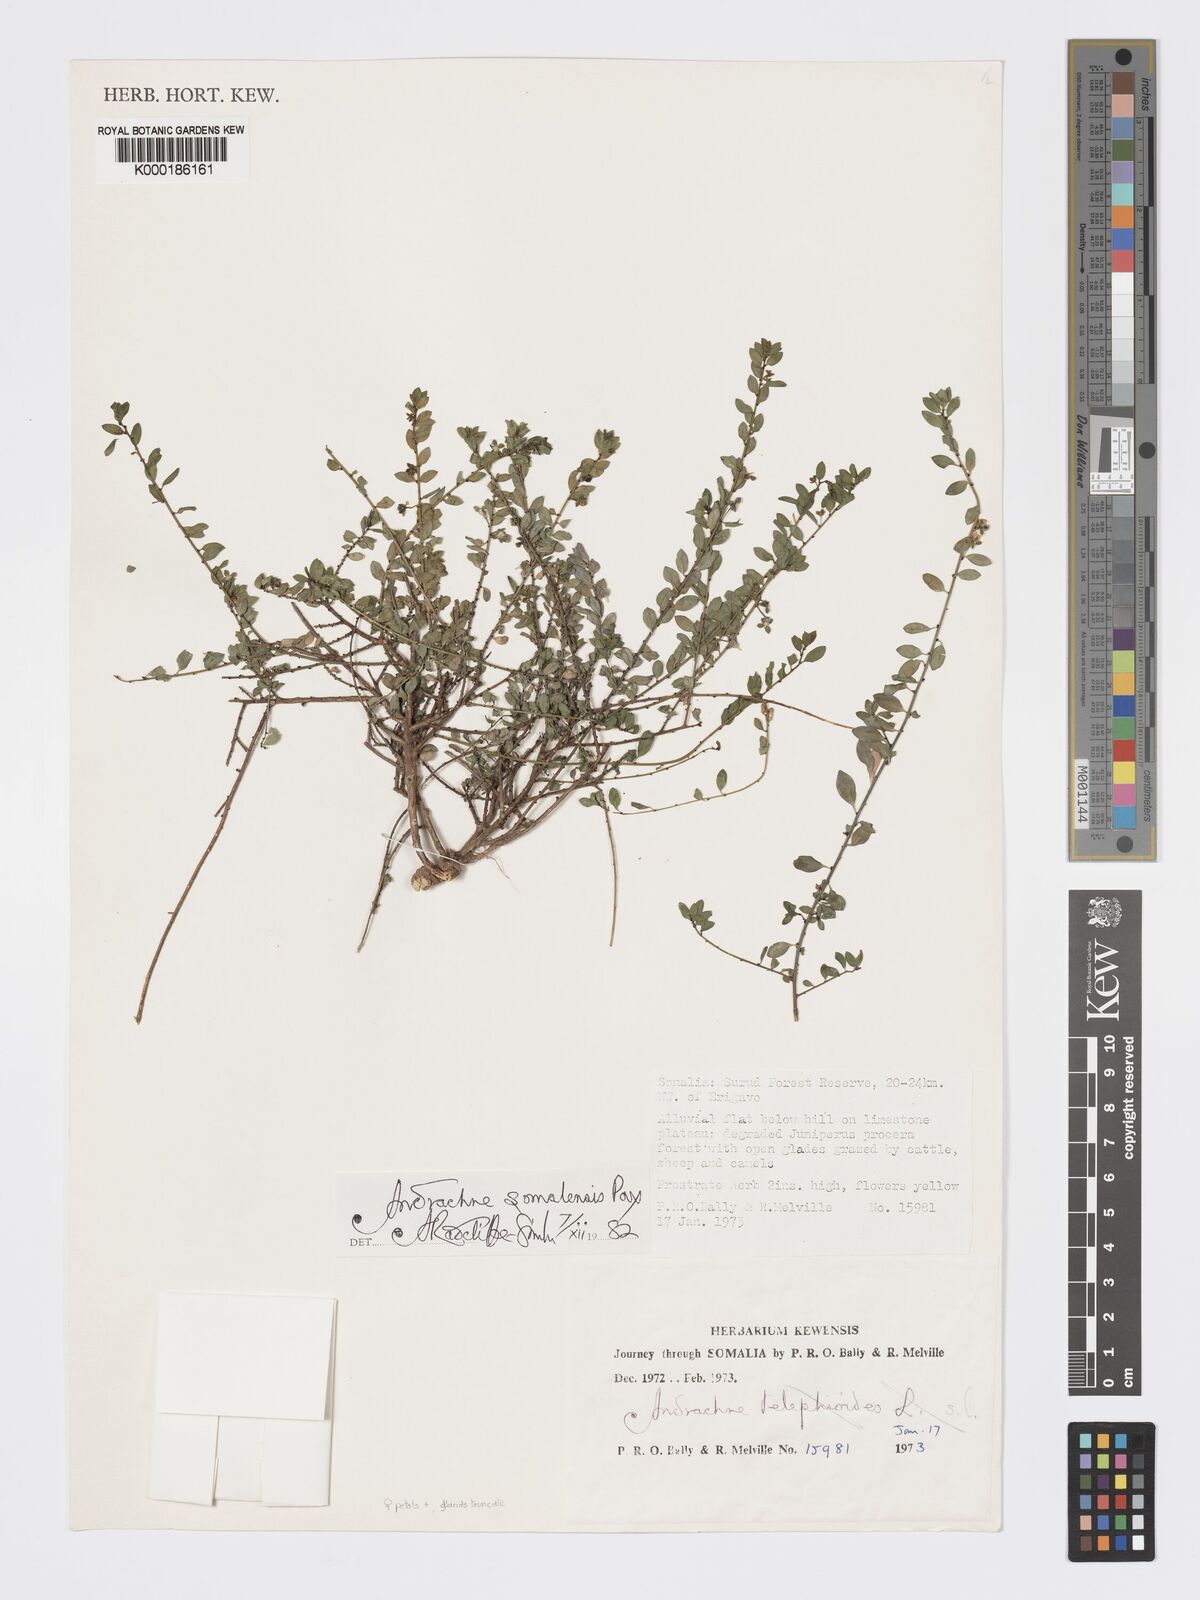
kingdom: Plantae
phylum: Tracheophyta
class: Magnoliopsida
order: Malpighiales
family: Phyllanthaceae
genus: Andrachne
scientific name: Andrachne schweinfurthii
